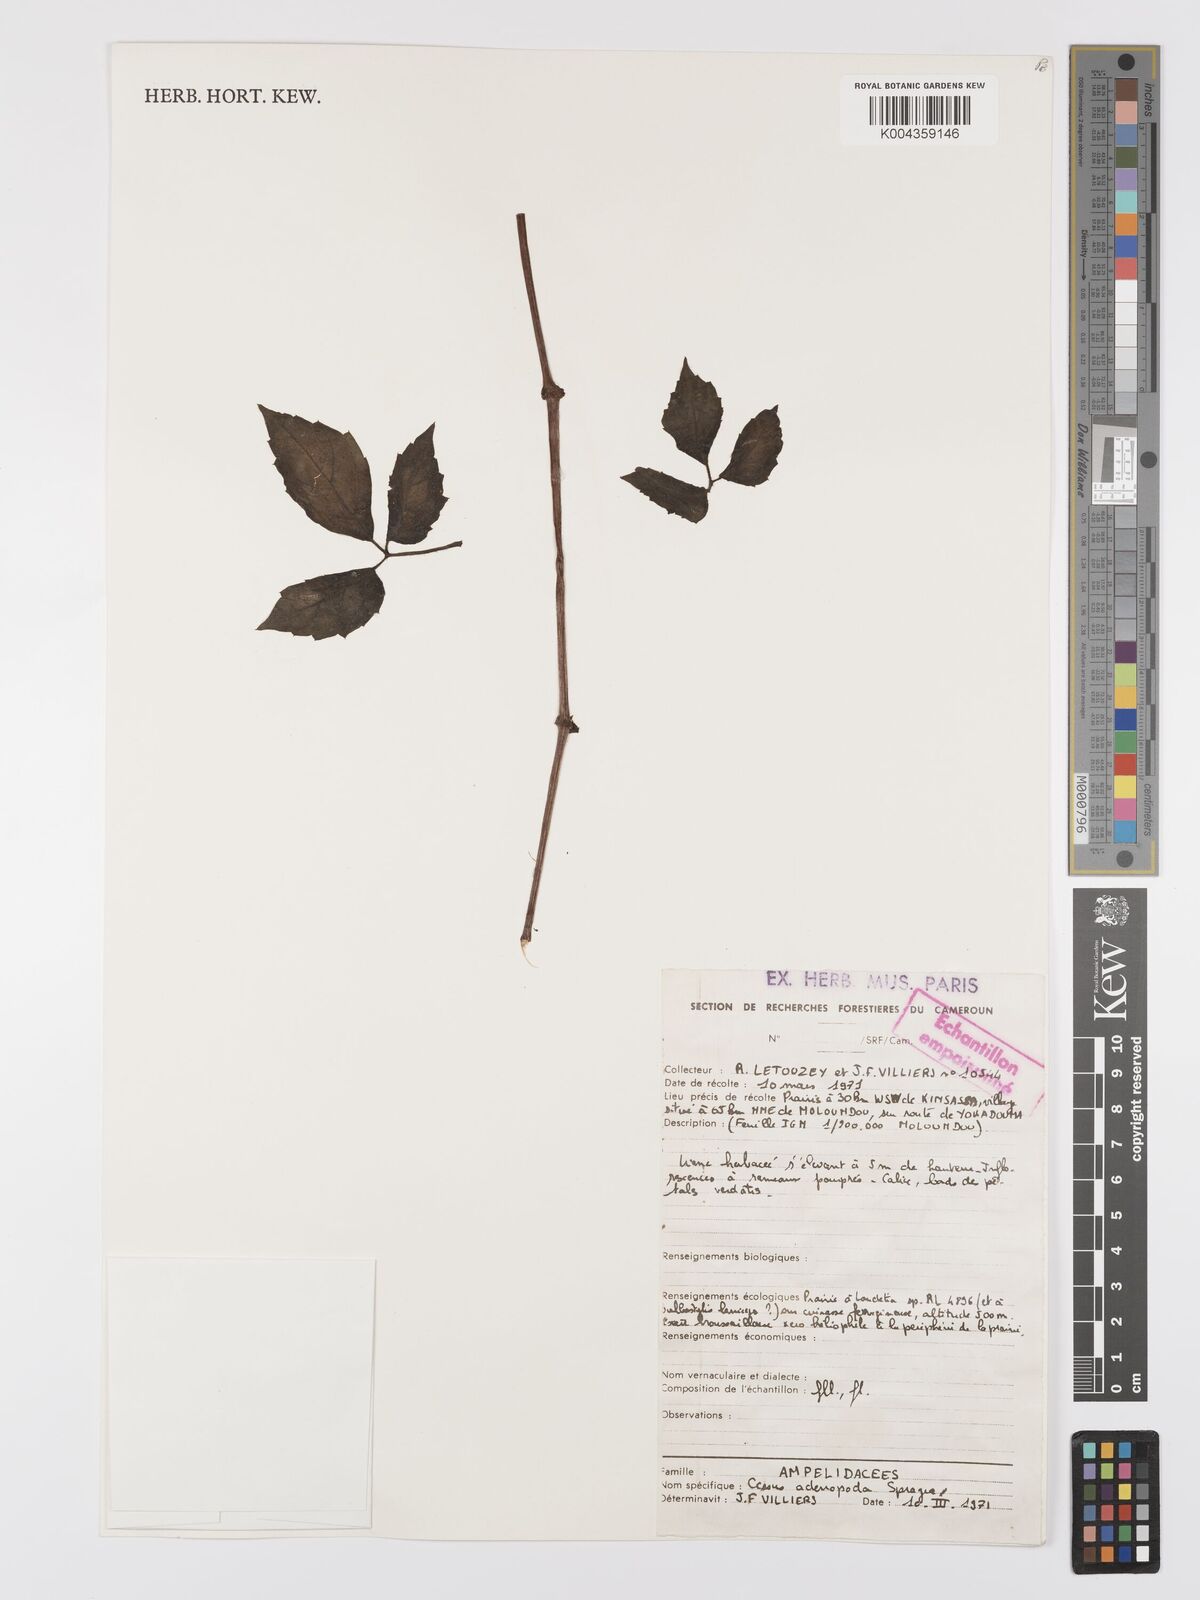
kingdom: Plantae
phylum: Tracheophyta
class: Magnoliopsida
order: Vitales
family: Vitaceae
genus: Cyphostemma
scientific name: Cyphostemma adenopodum
